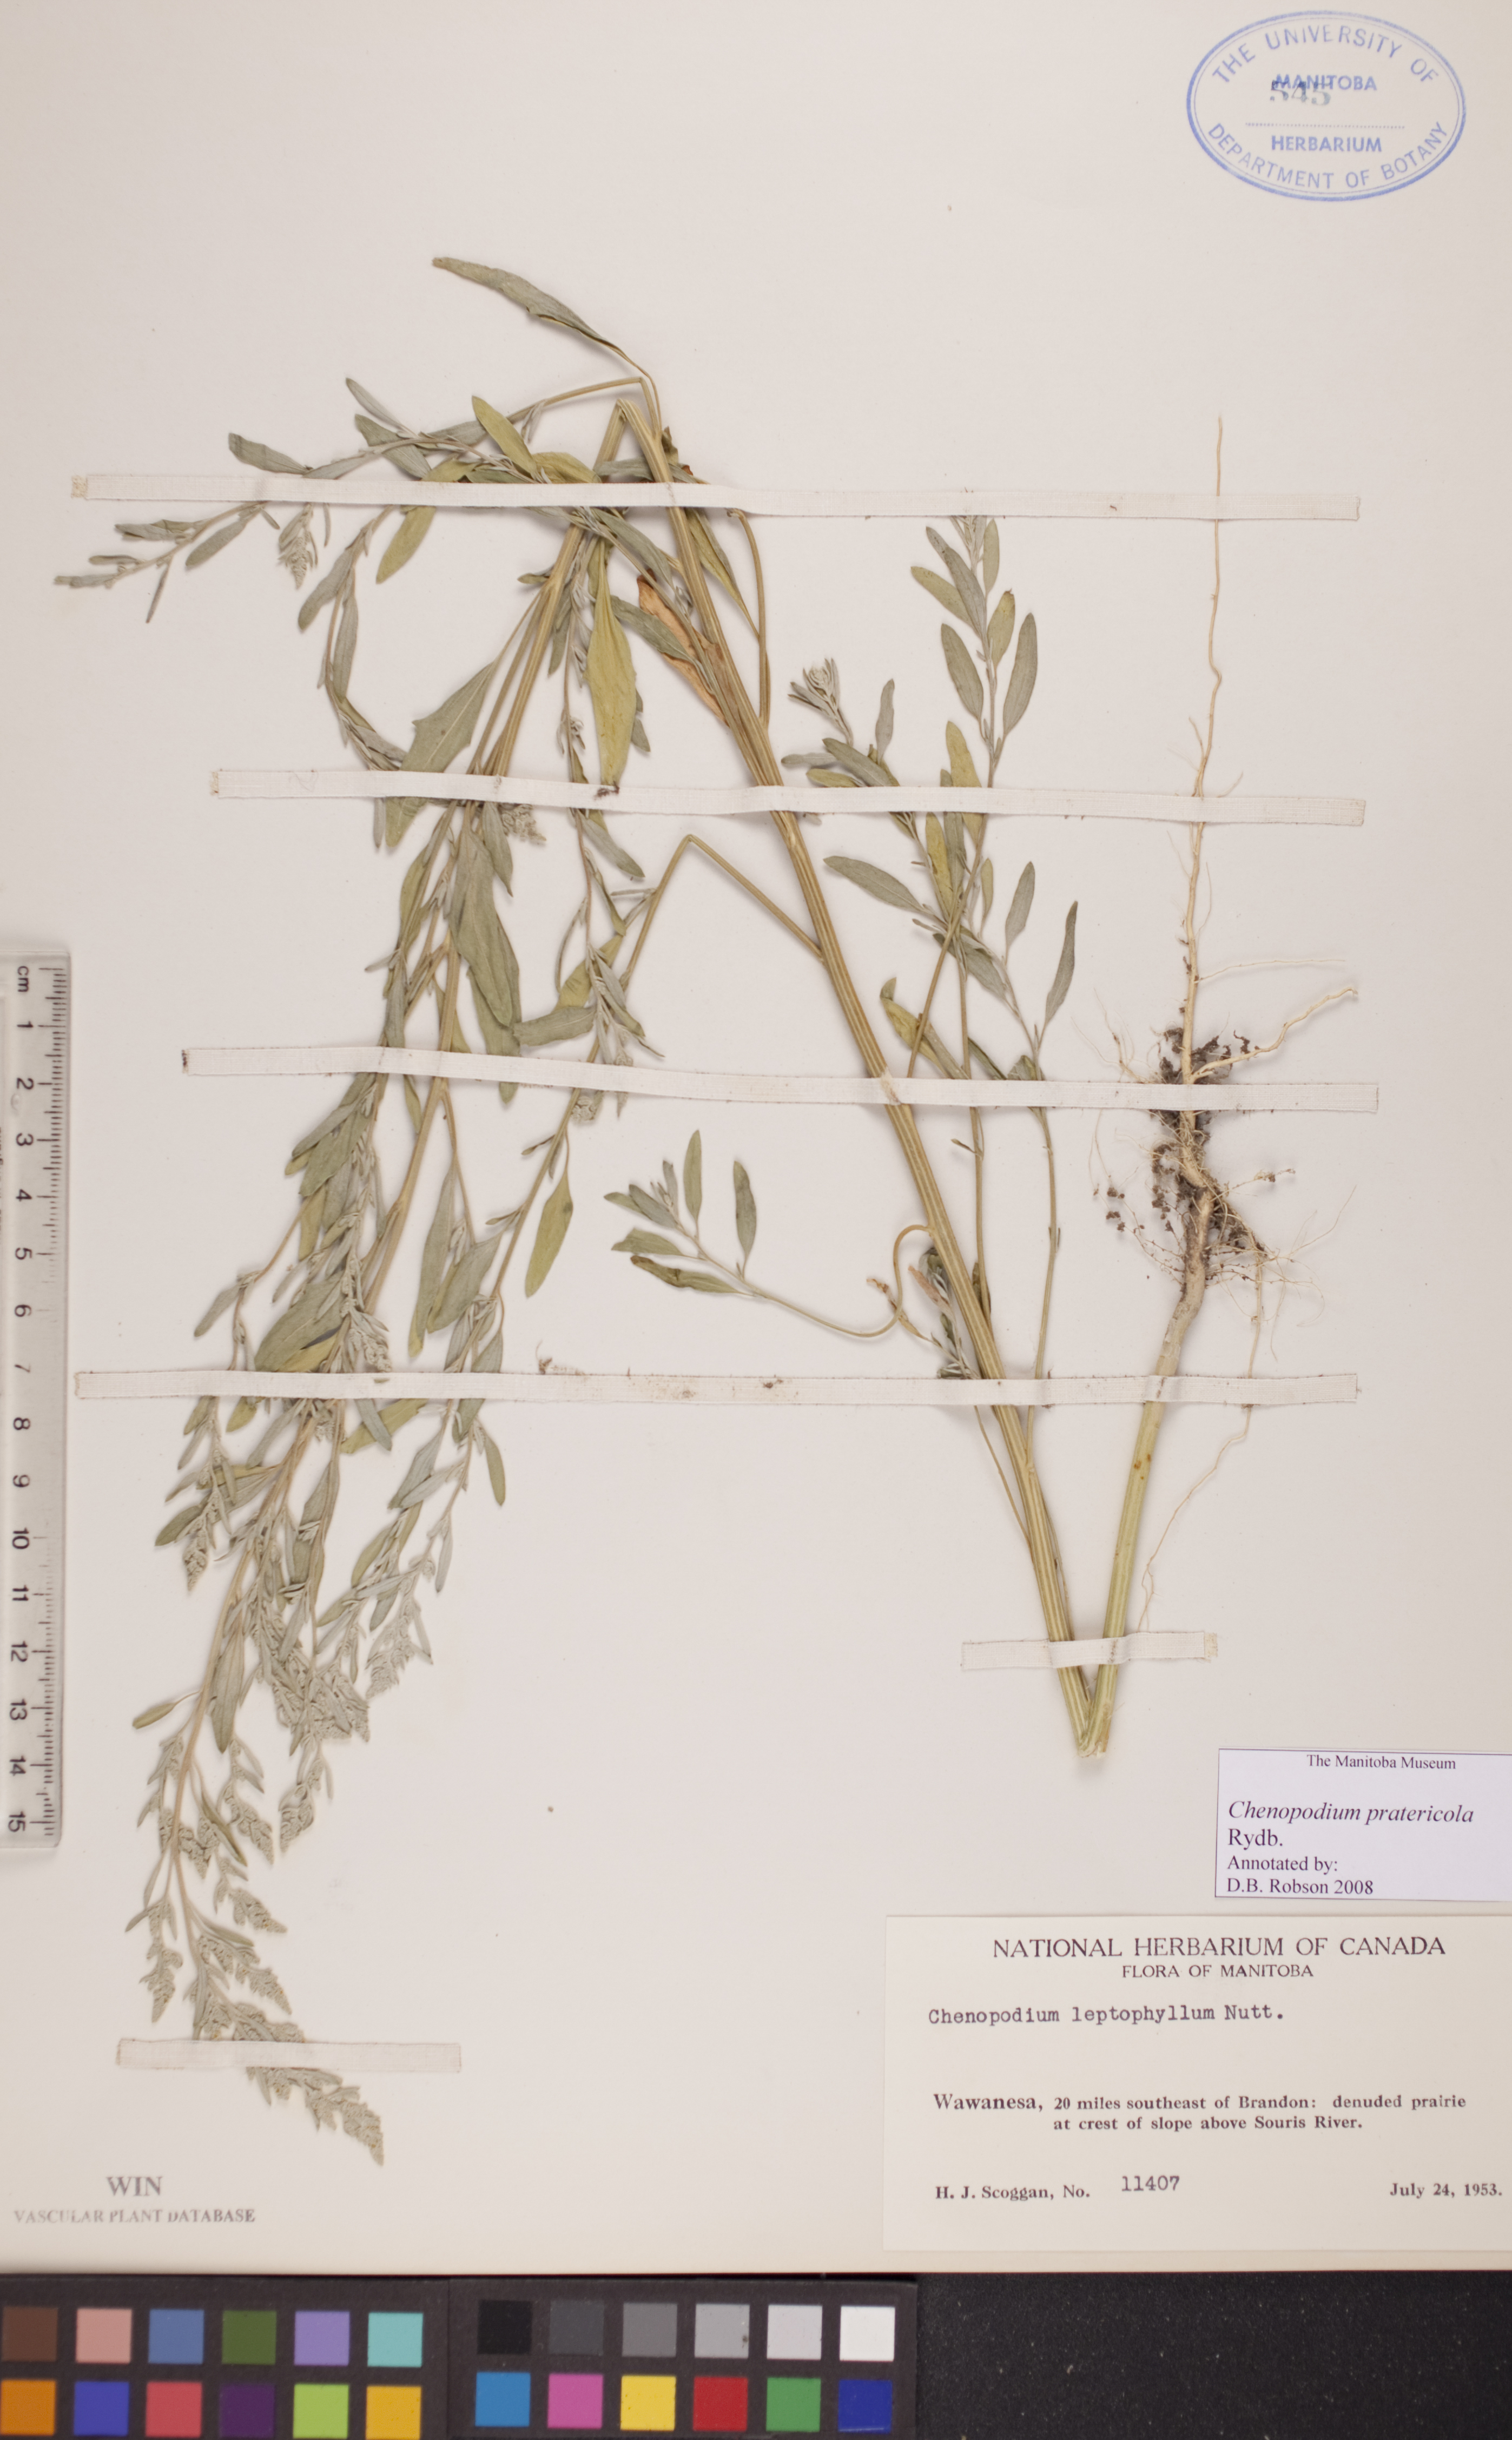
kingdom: Plantae
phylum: Tracheophyta
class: Magnoliopsida
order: Caryophyllales
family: Amaranthaceae
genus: Chenopodium
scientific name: Chenopodium pratericola
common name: Desert goosefoot
